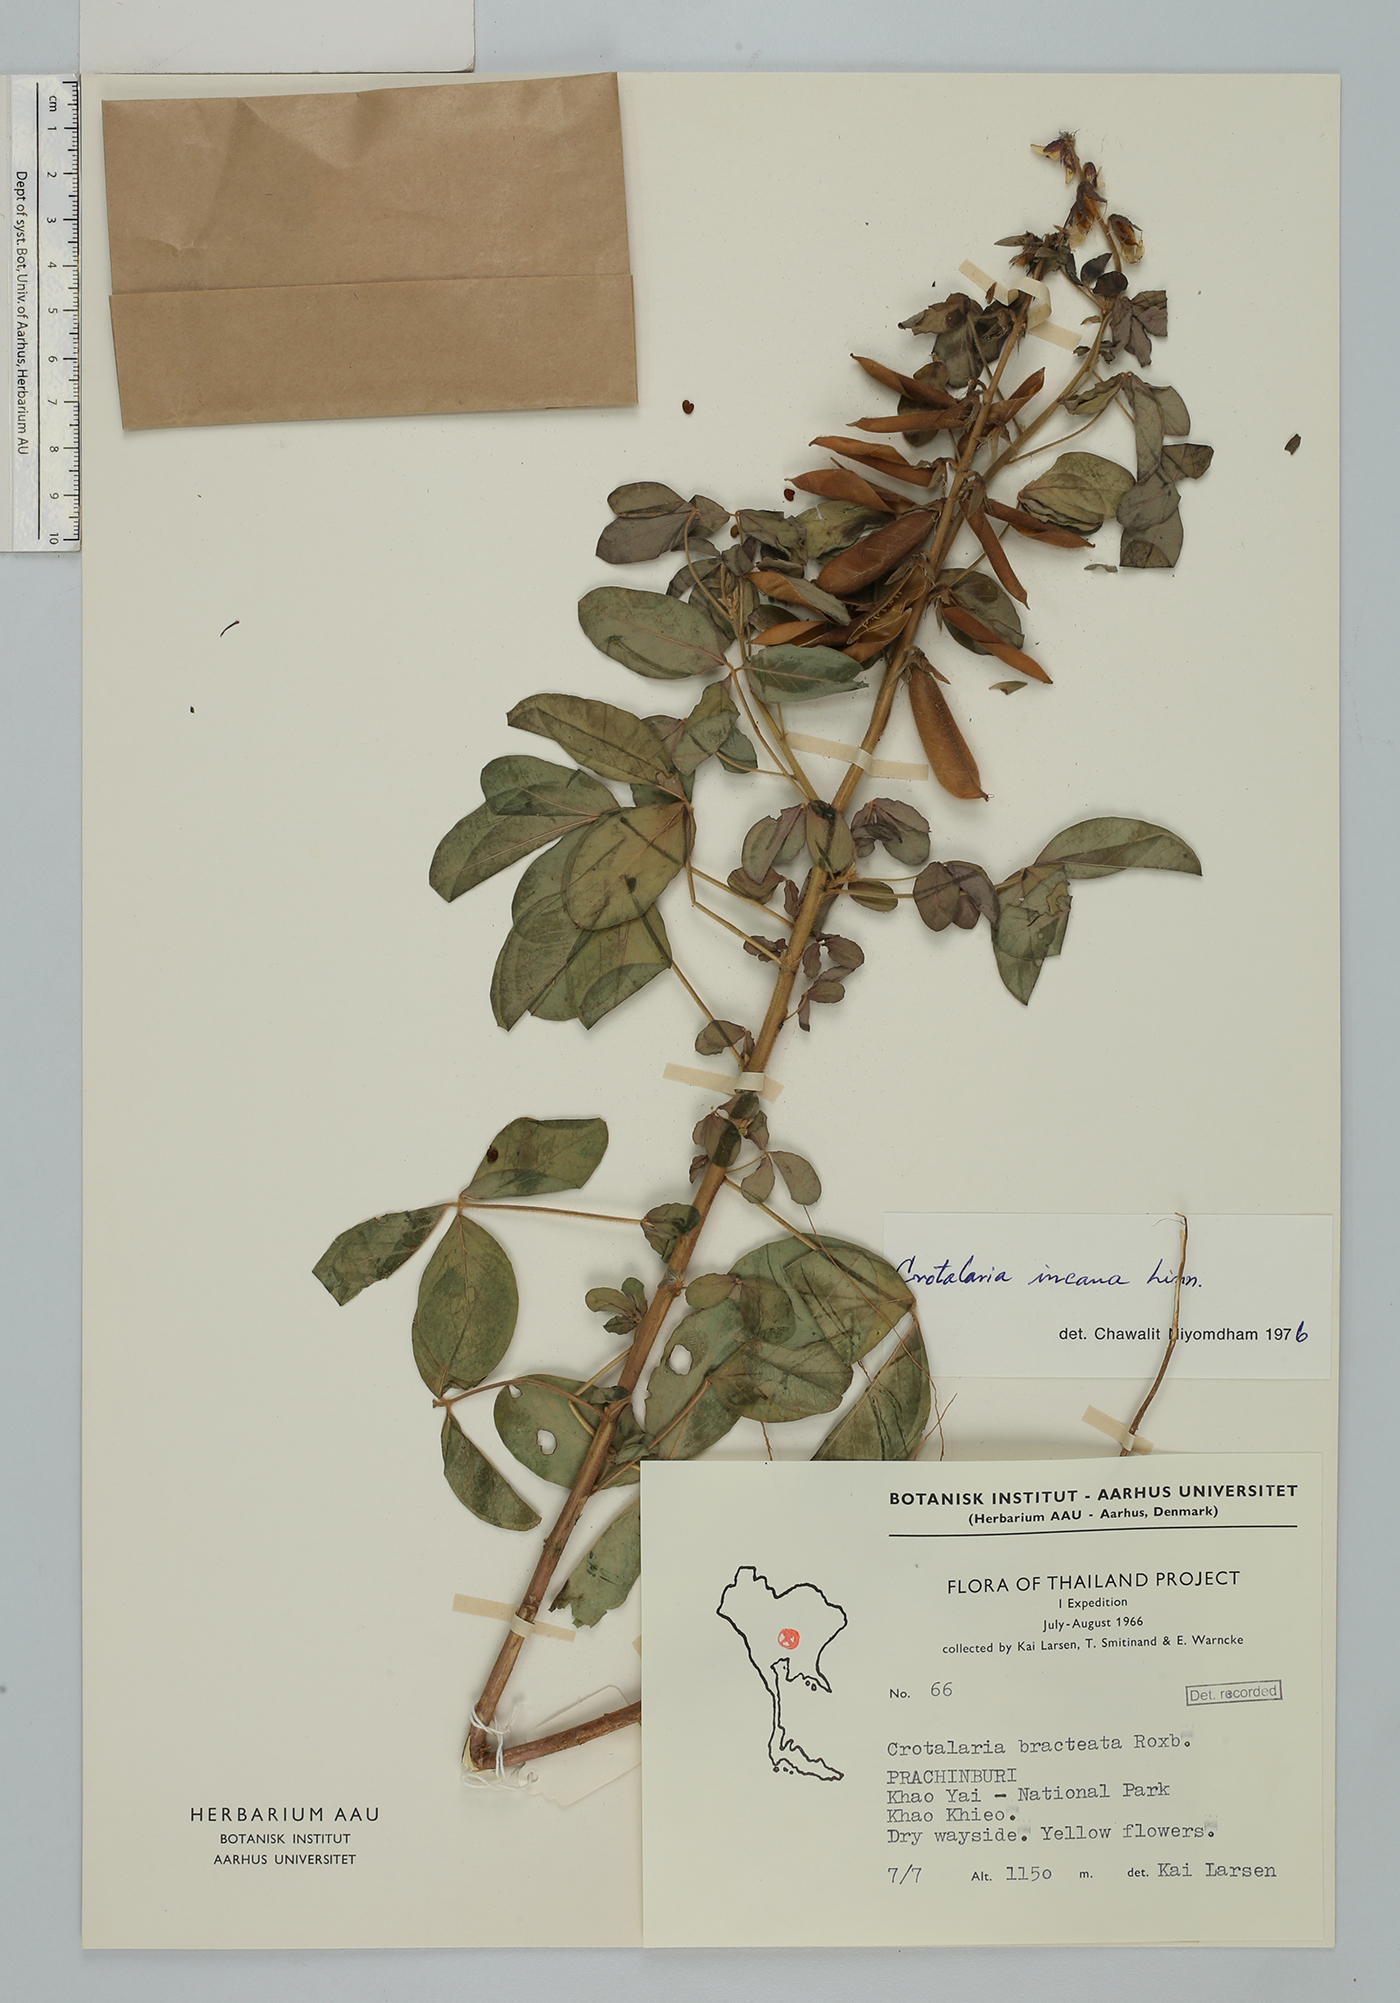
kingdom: Plantae
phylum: Tracheophyta
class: Magnoliopsida
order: Fabales
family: Fabaceae
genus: Crotalaria
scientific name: Crotalaria incana
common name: Shakeshake
